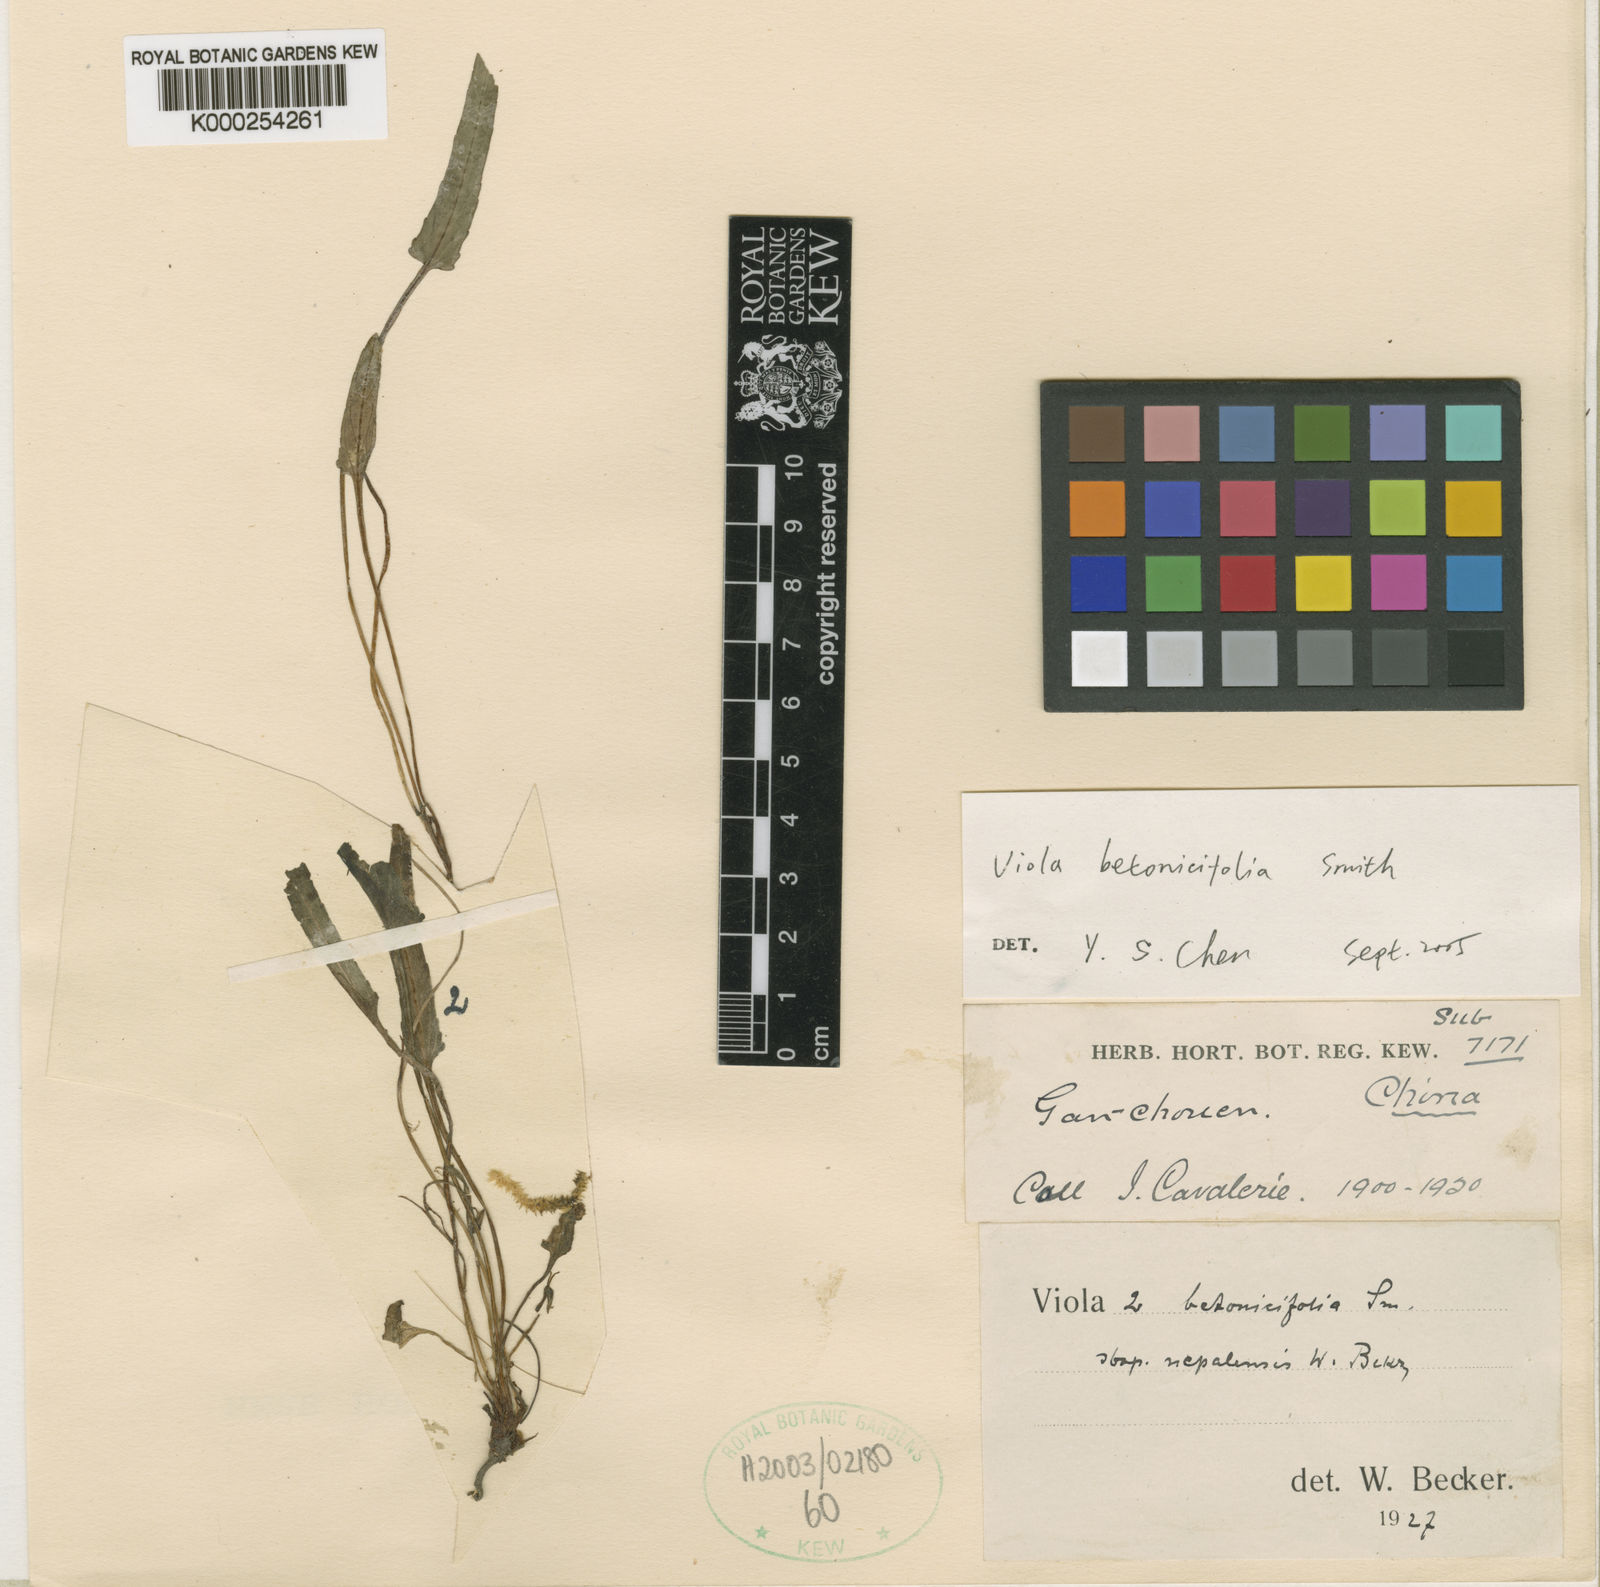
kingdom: Plantae
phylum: Tracheophyta
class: Magnoliopsida
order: Malpighiales
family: Violaceae
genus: Viola
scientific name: Viola fargesii
